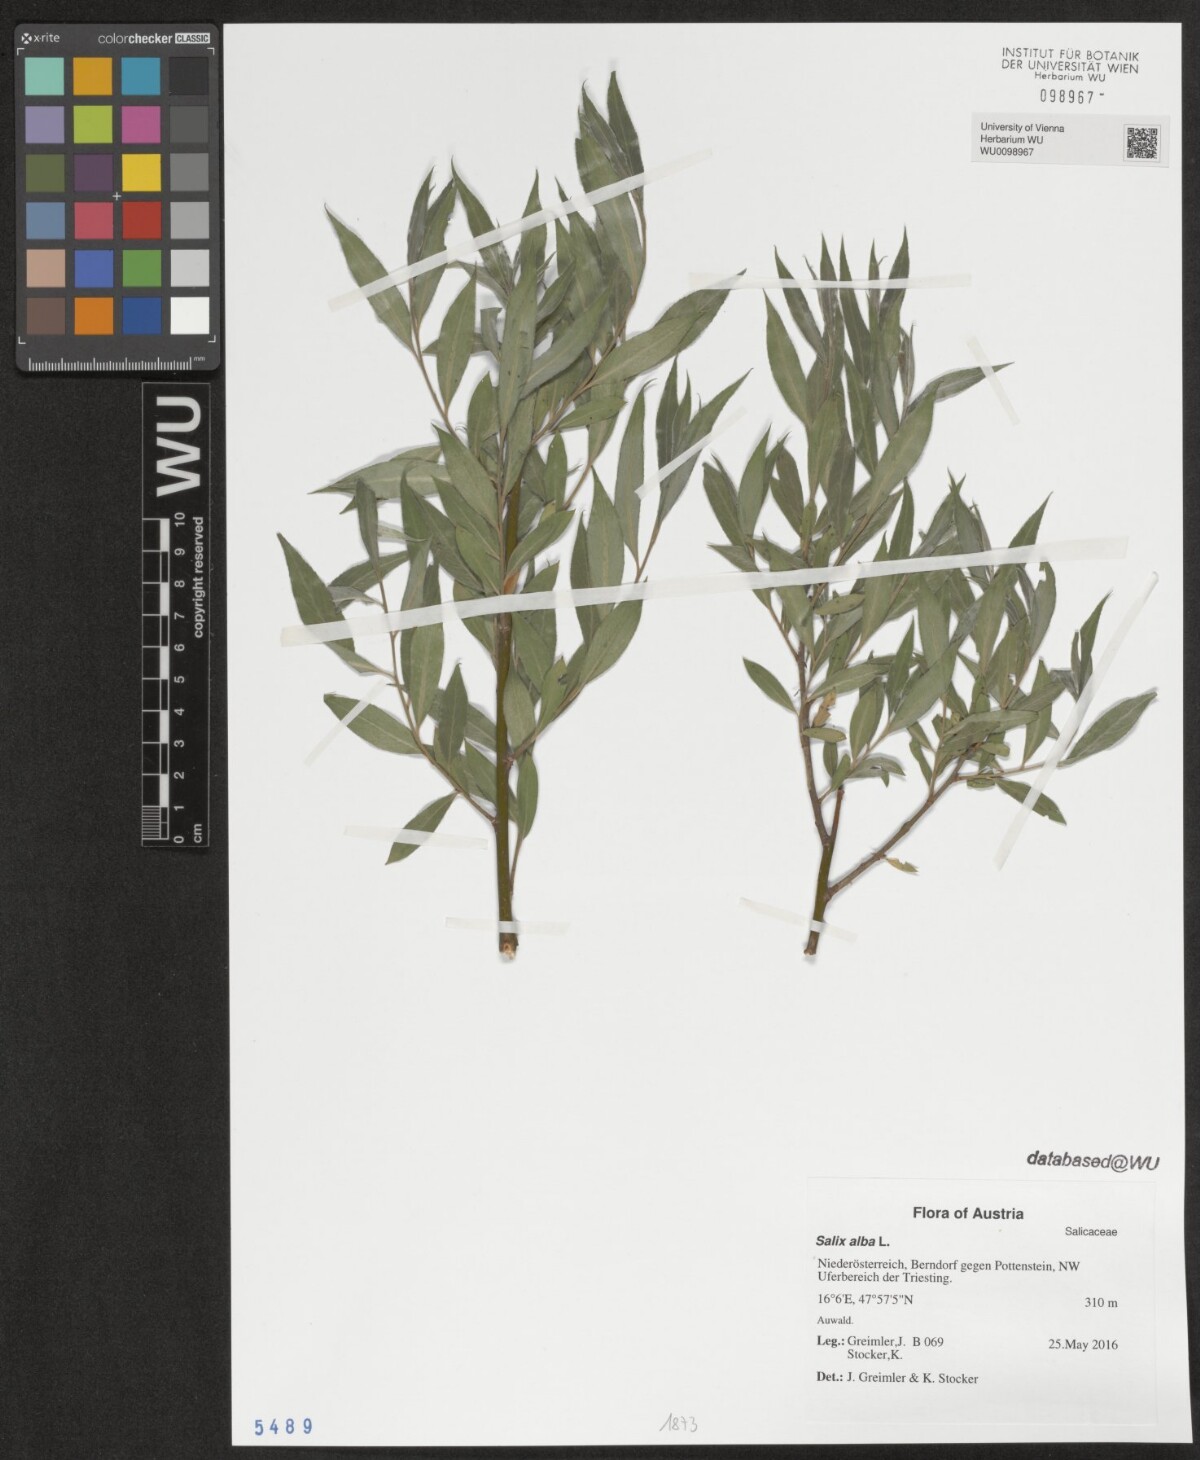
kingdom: Plantae
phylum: Tracheophyta
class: Magnoliopsida
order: Malpighiales
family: Salicaceae
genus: Salix
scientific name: Salix alba
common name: White willow
